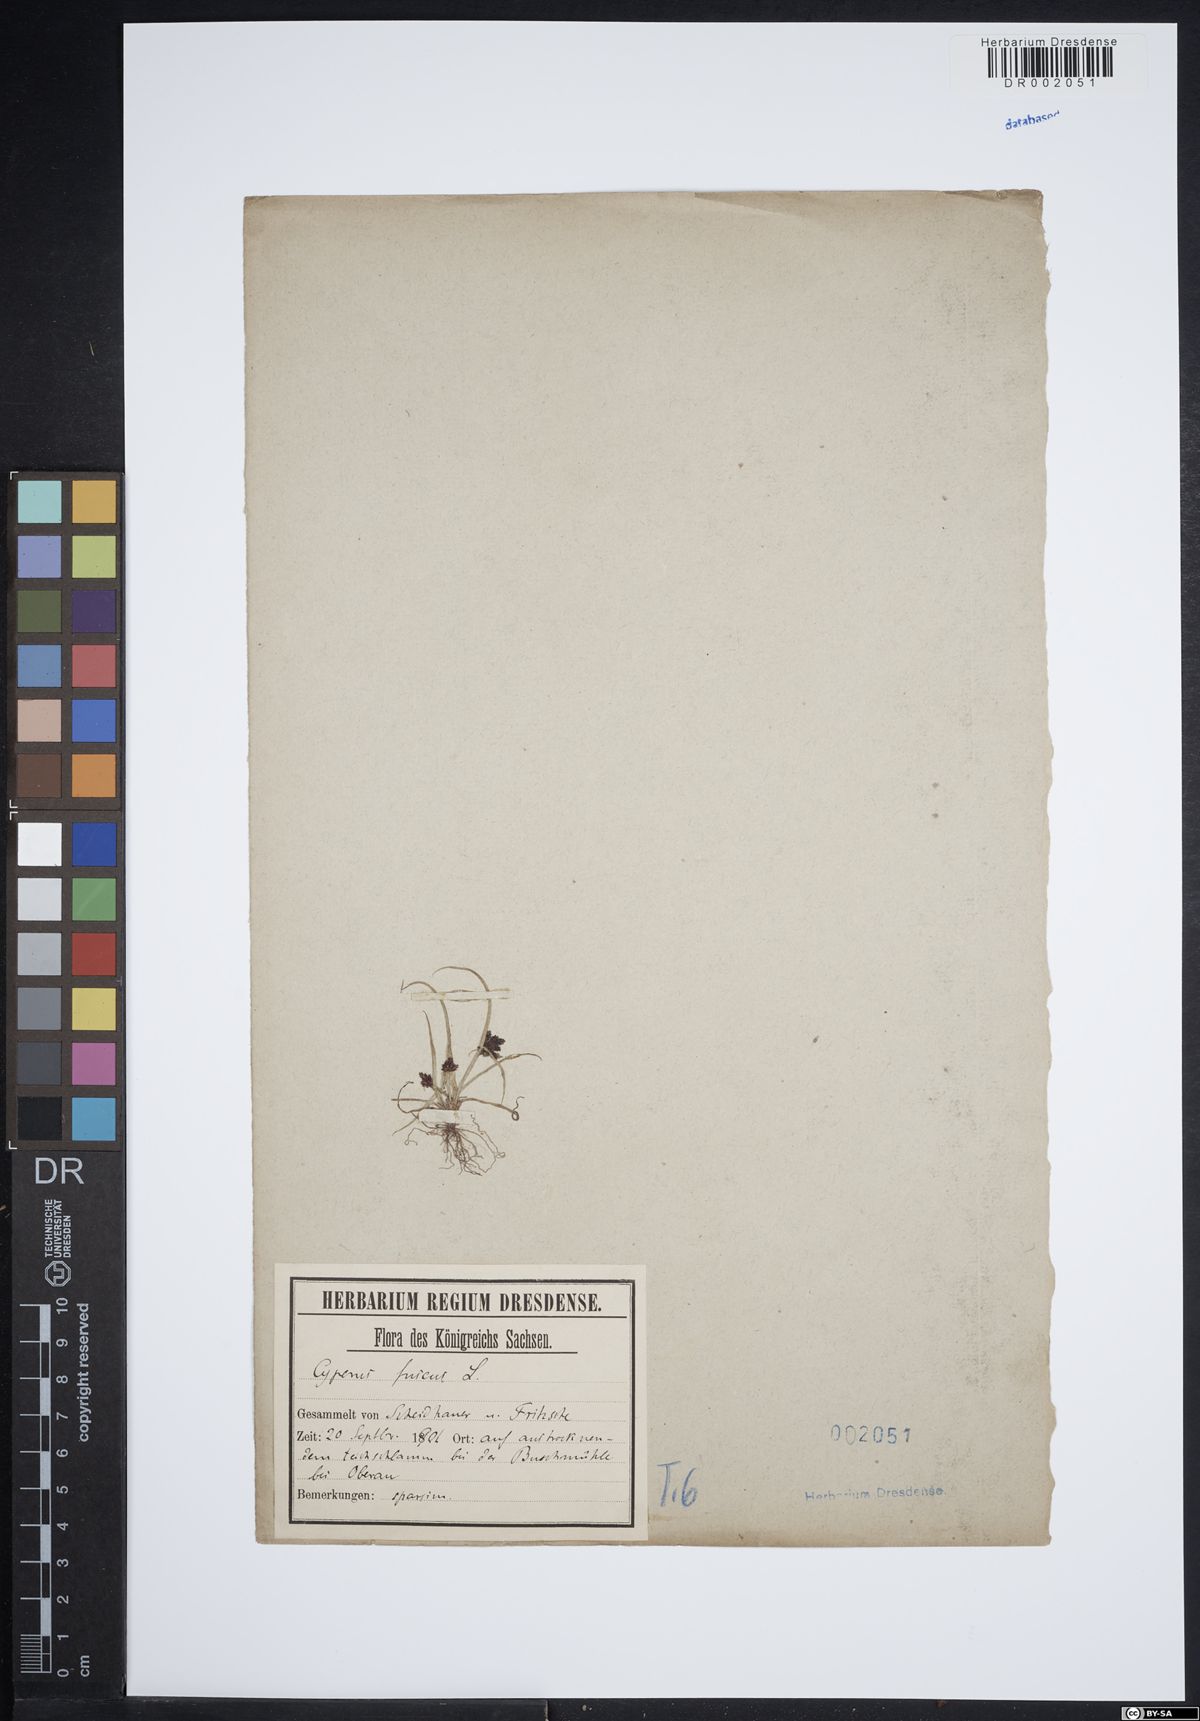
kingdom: Plantae
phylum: Tracheophyta
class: Liliopsida
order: Poales
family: Cyperaceae
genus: Cyperus
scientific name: Cyperus fuscus
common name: Brown galingale
